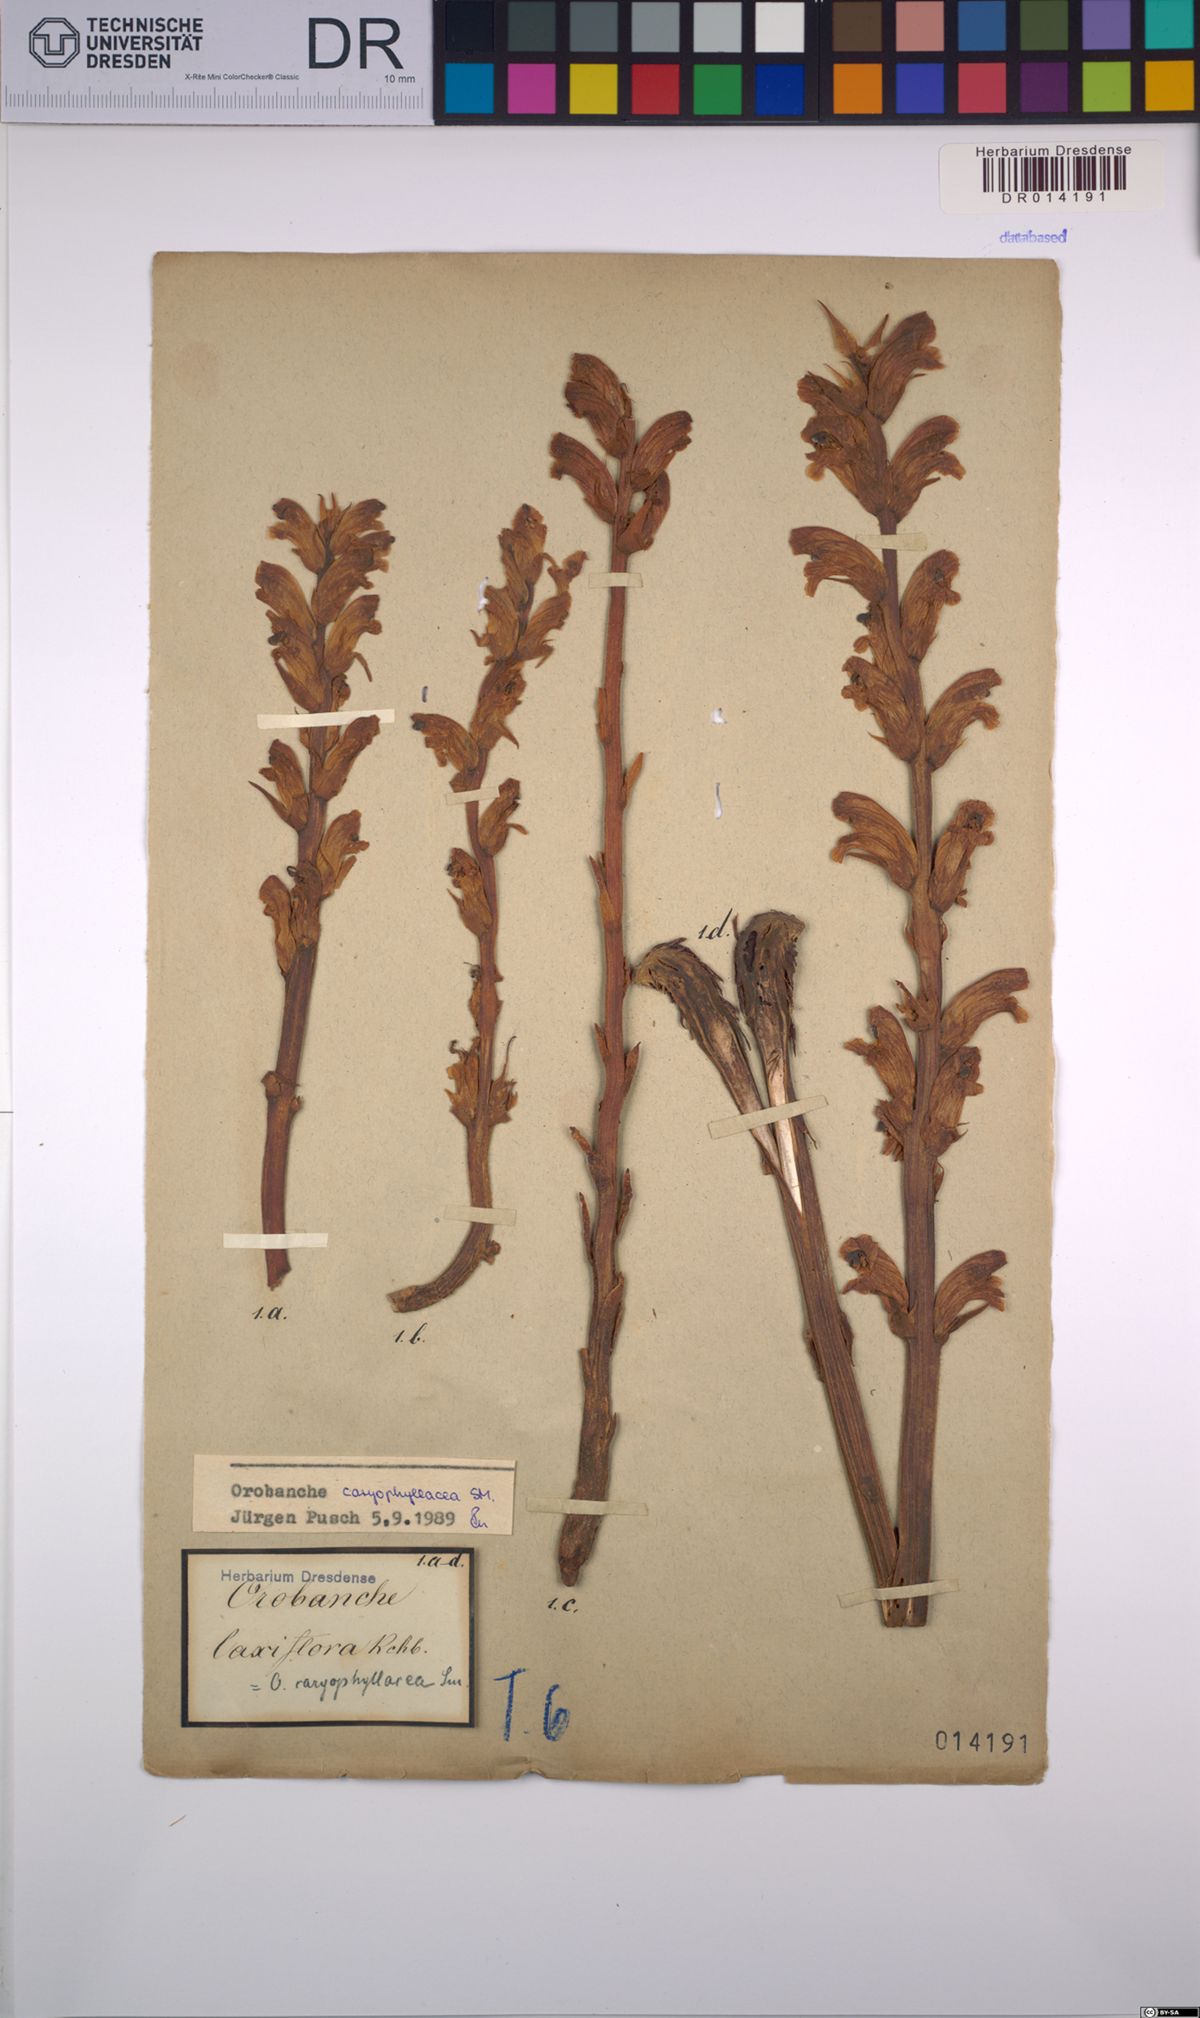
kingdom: Plantae
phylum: Tracheophyta
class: Magnoliopsida
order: Lamiales
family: Orobanchaceae
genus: Orobanche
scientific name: Orobanche caryophyllacea
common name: Bedstraw broomrape
